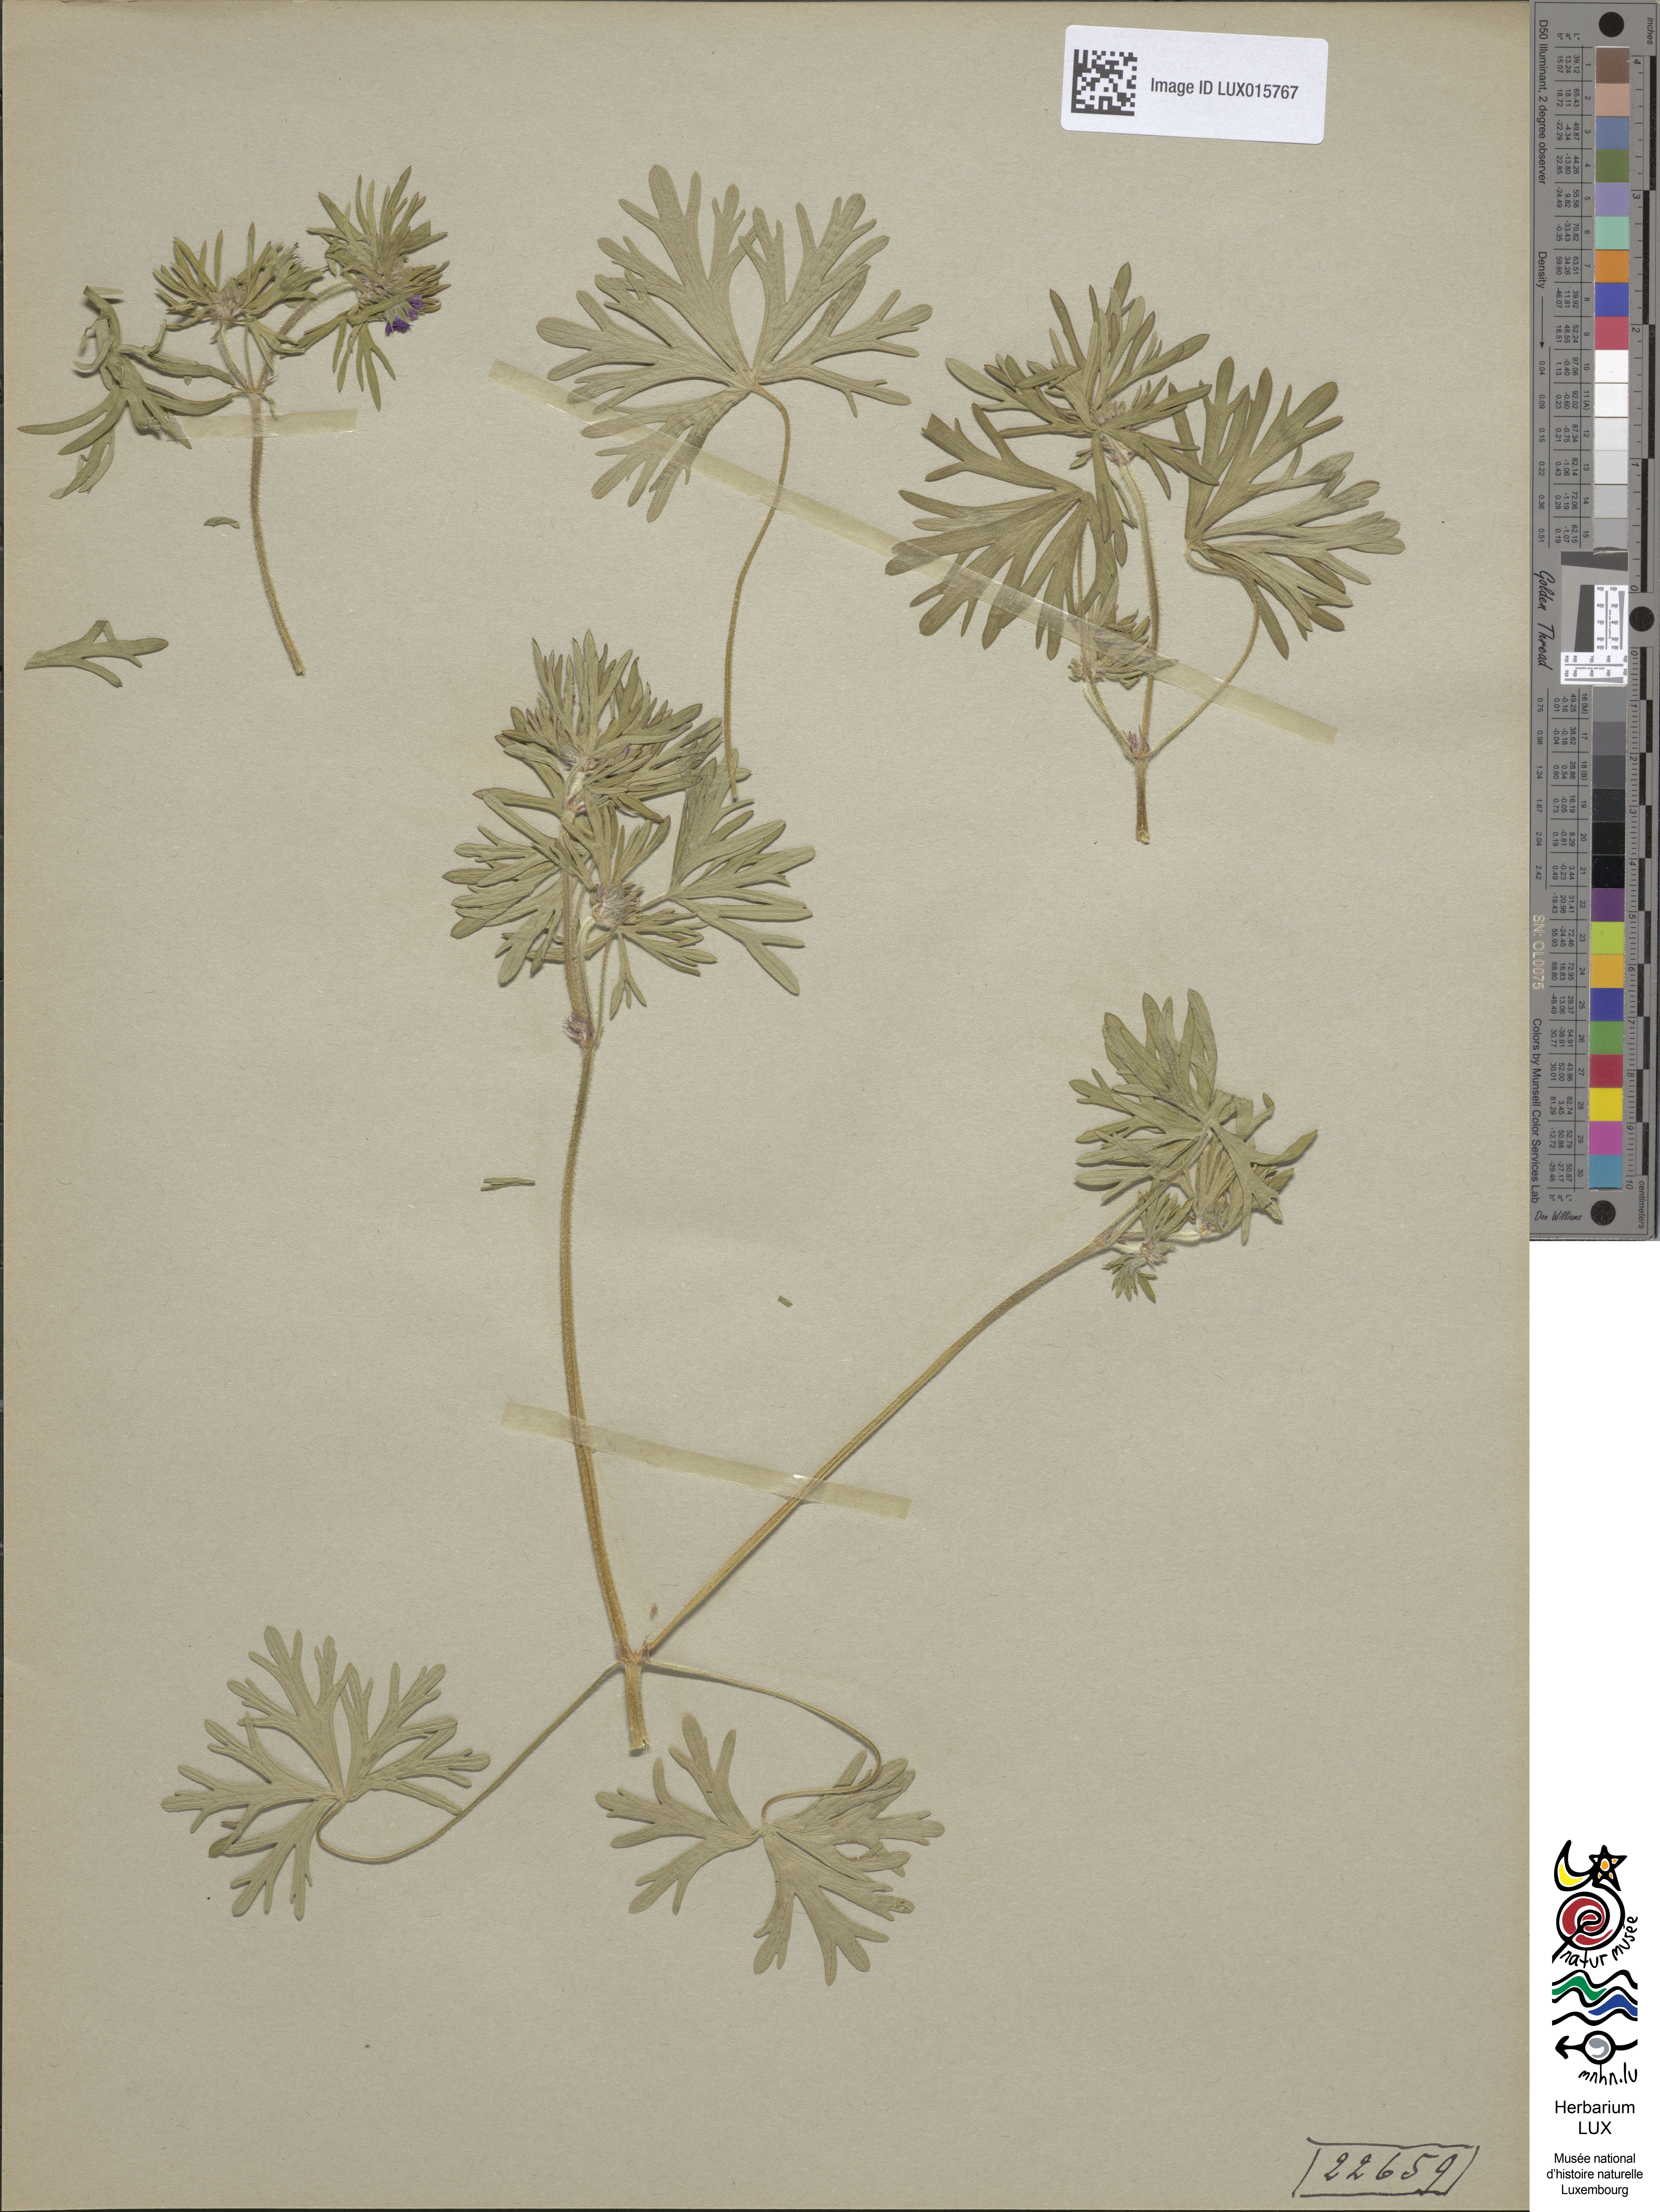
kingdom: Plantae
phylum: Tracheophyta
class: Magnoliopsida
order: Geraniales
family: Geraniaceae
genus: Geranium
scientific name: Geranium dissectum
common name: Cut-leaved crane's-bill
